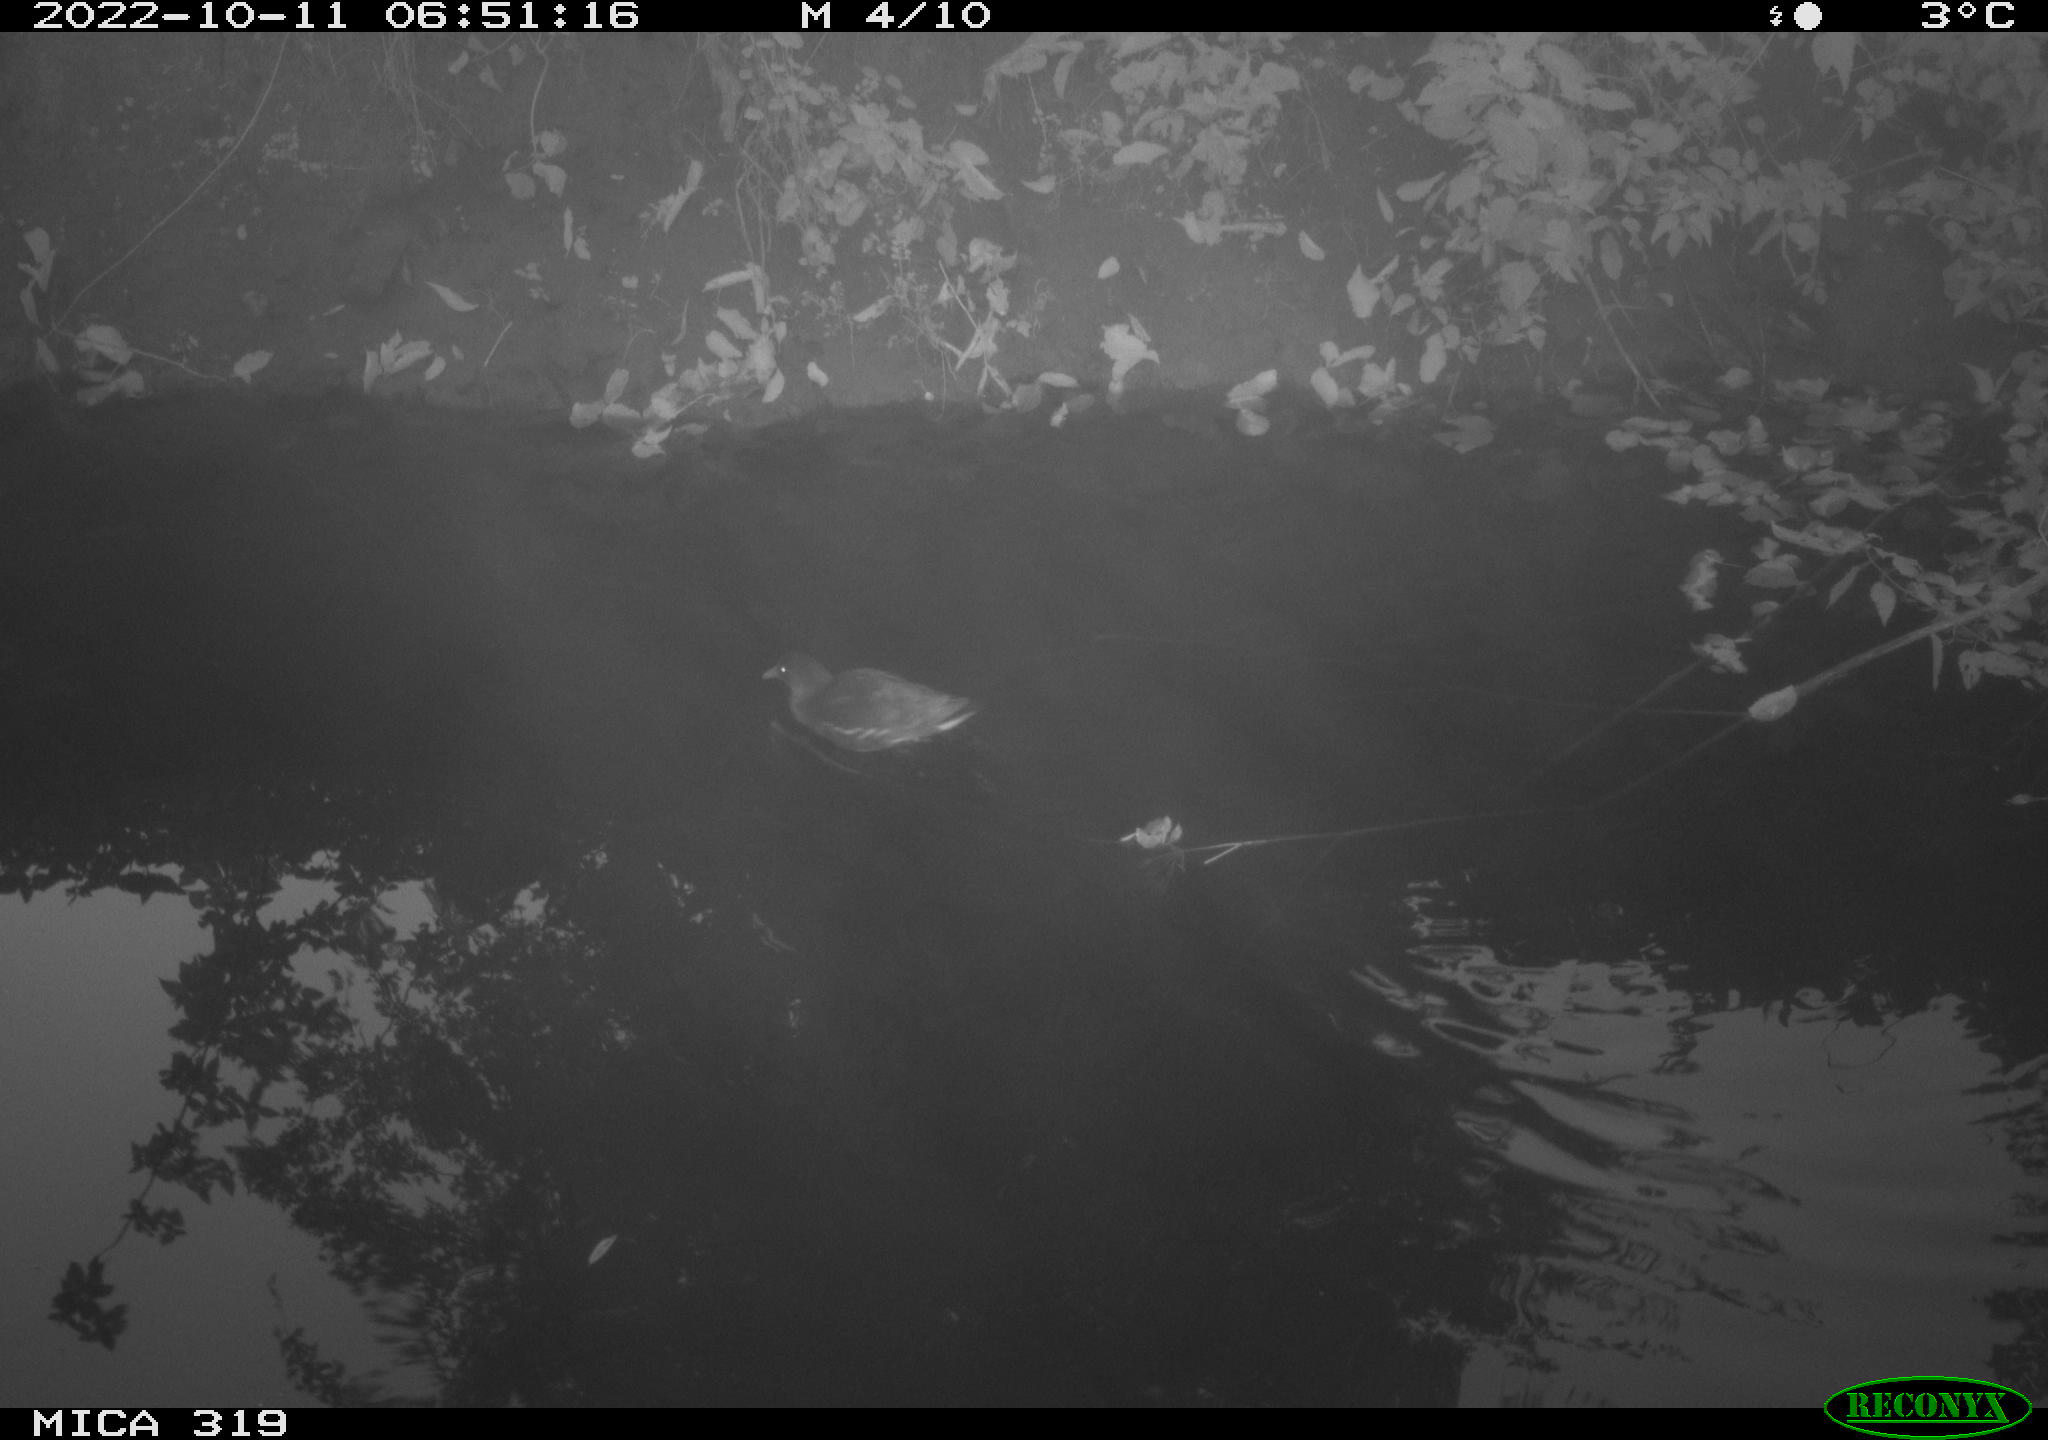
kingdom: Animalia
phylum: Chordata
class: Aves
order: Gruiformes
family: Rallidae
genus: Gallinula
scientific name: Gallinula chloropus
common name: Common moorhen
